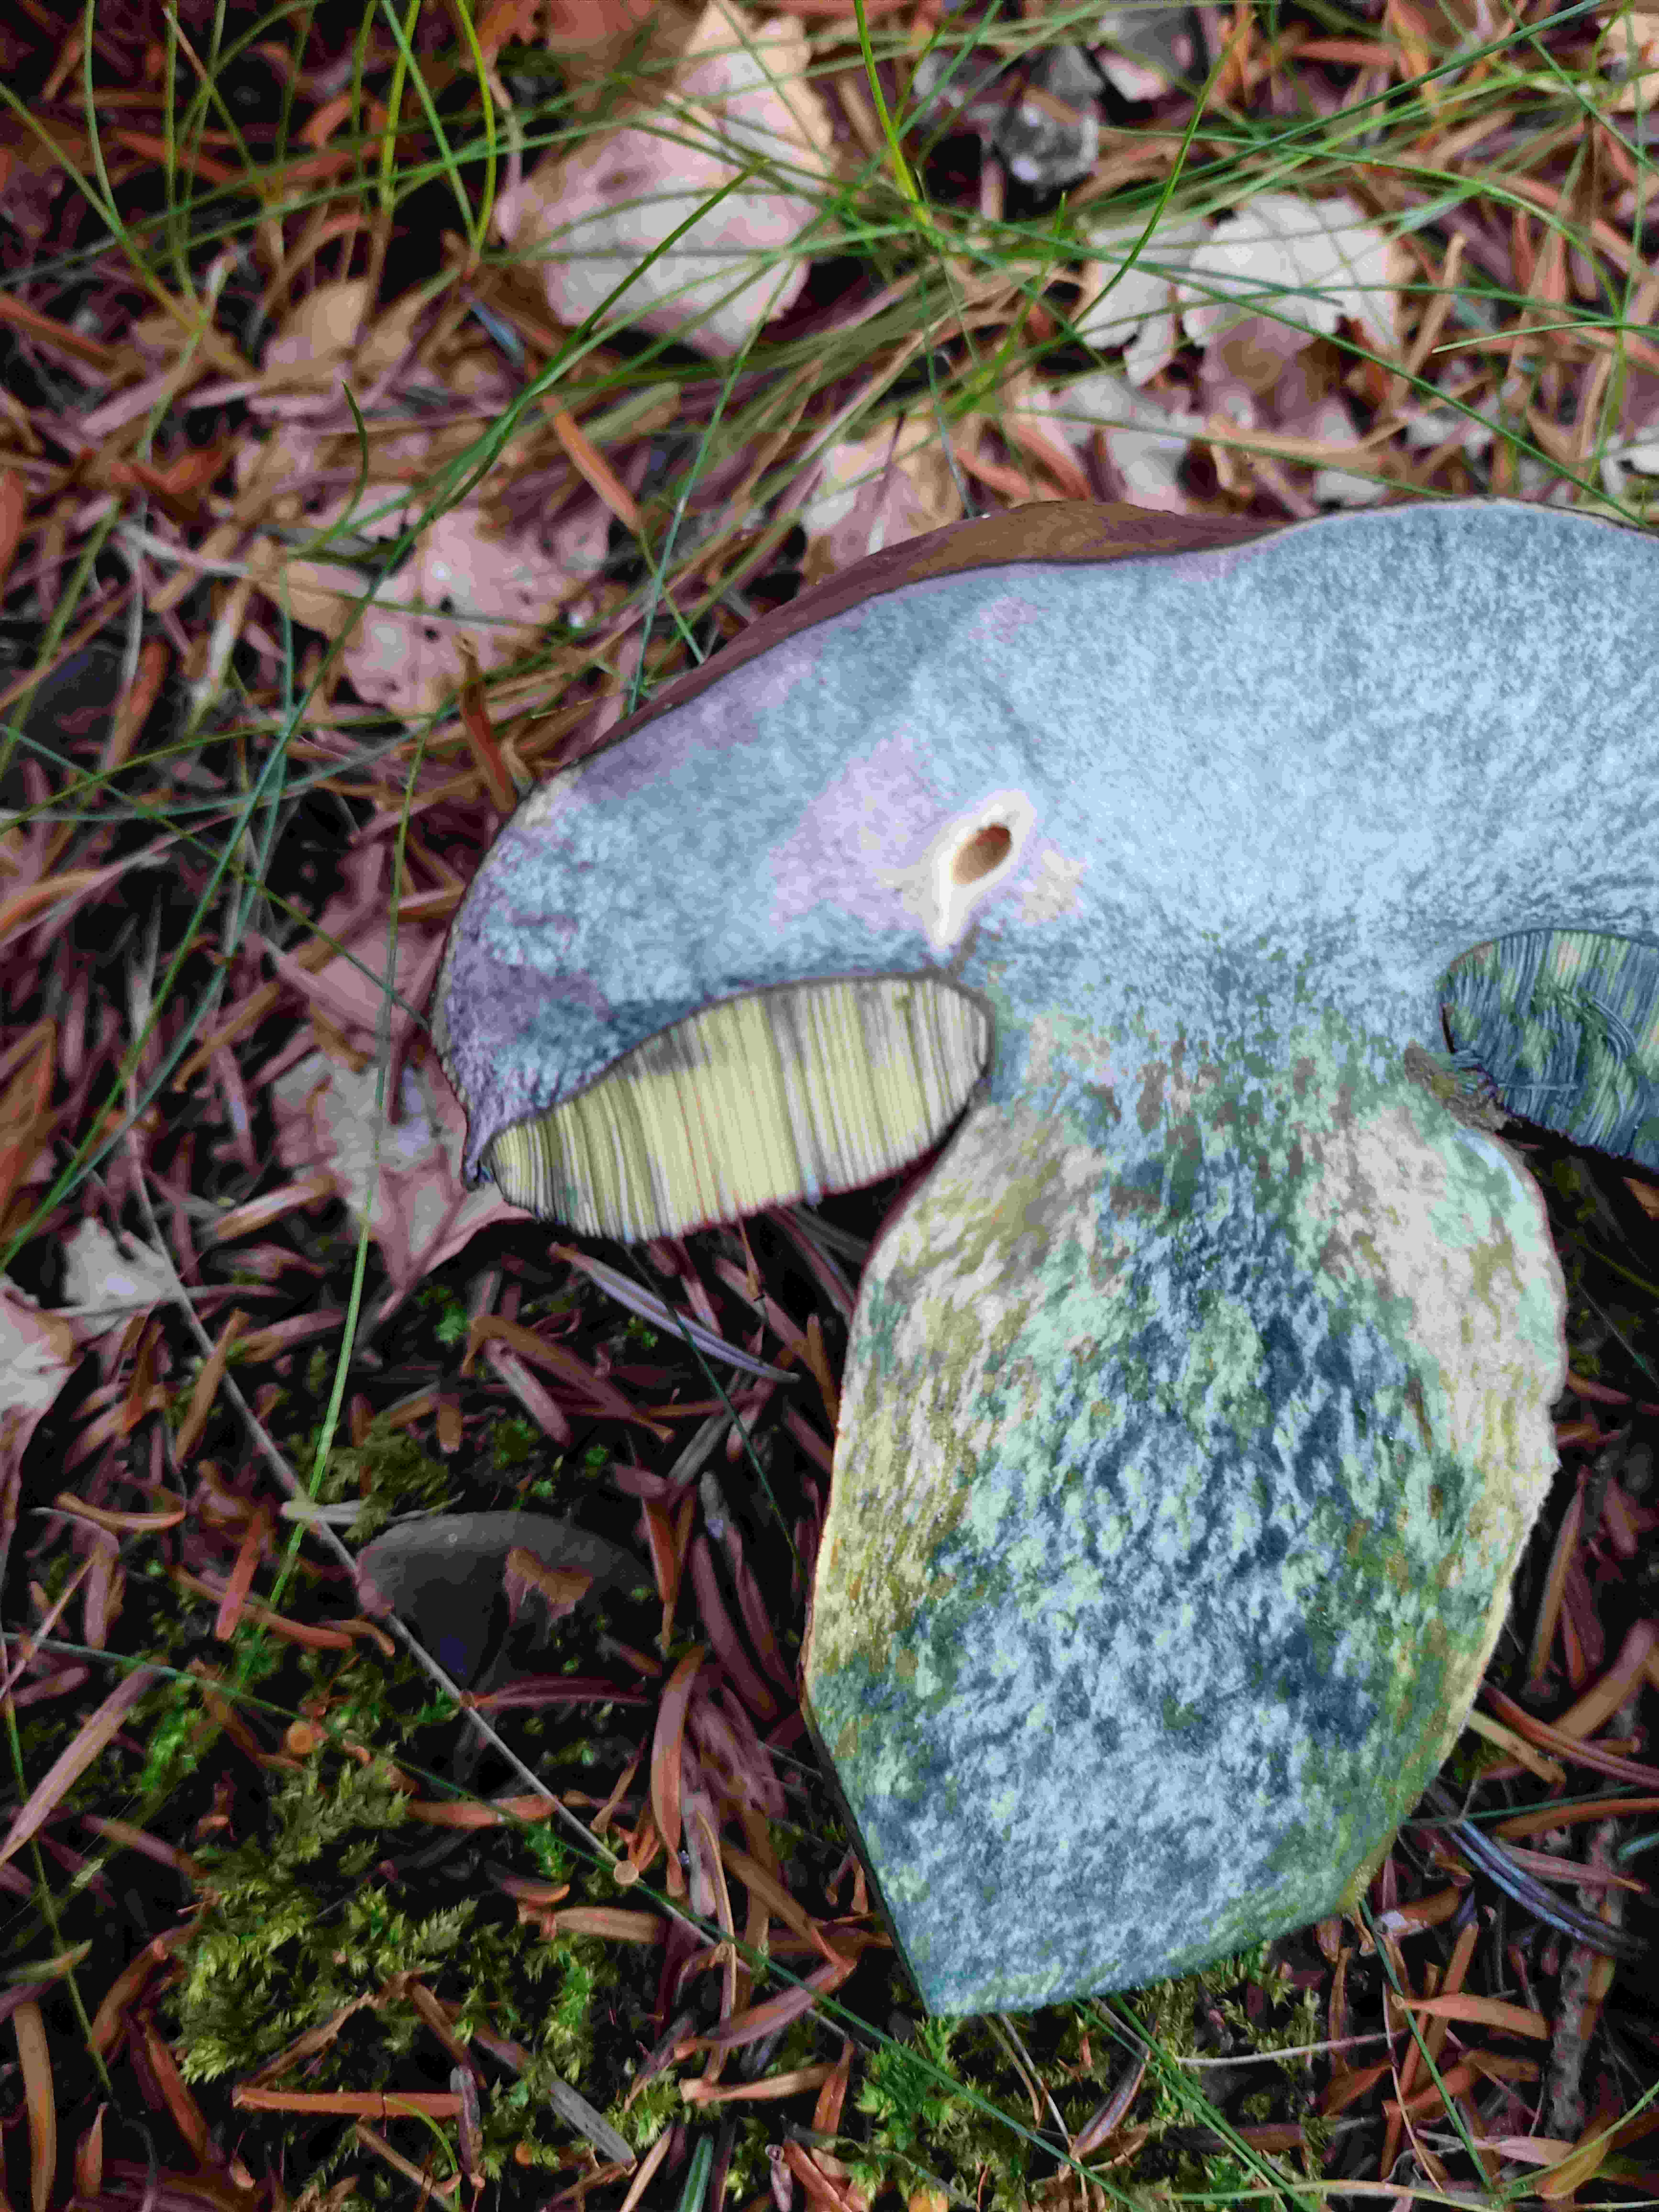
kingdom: Fungi
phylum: Basidiomycota
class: Agaricomycetes
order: Boletales
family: Boletaceae
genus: Neoboletus
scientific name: Neoboletus erythropus
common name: punktstokket indigorørhat
